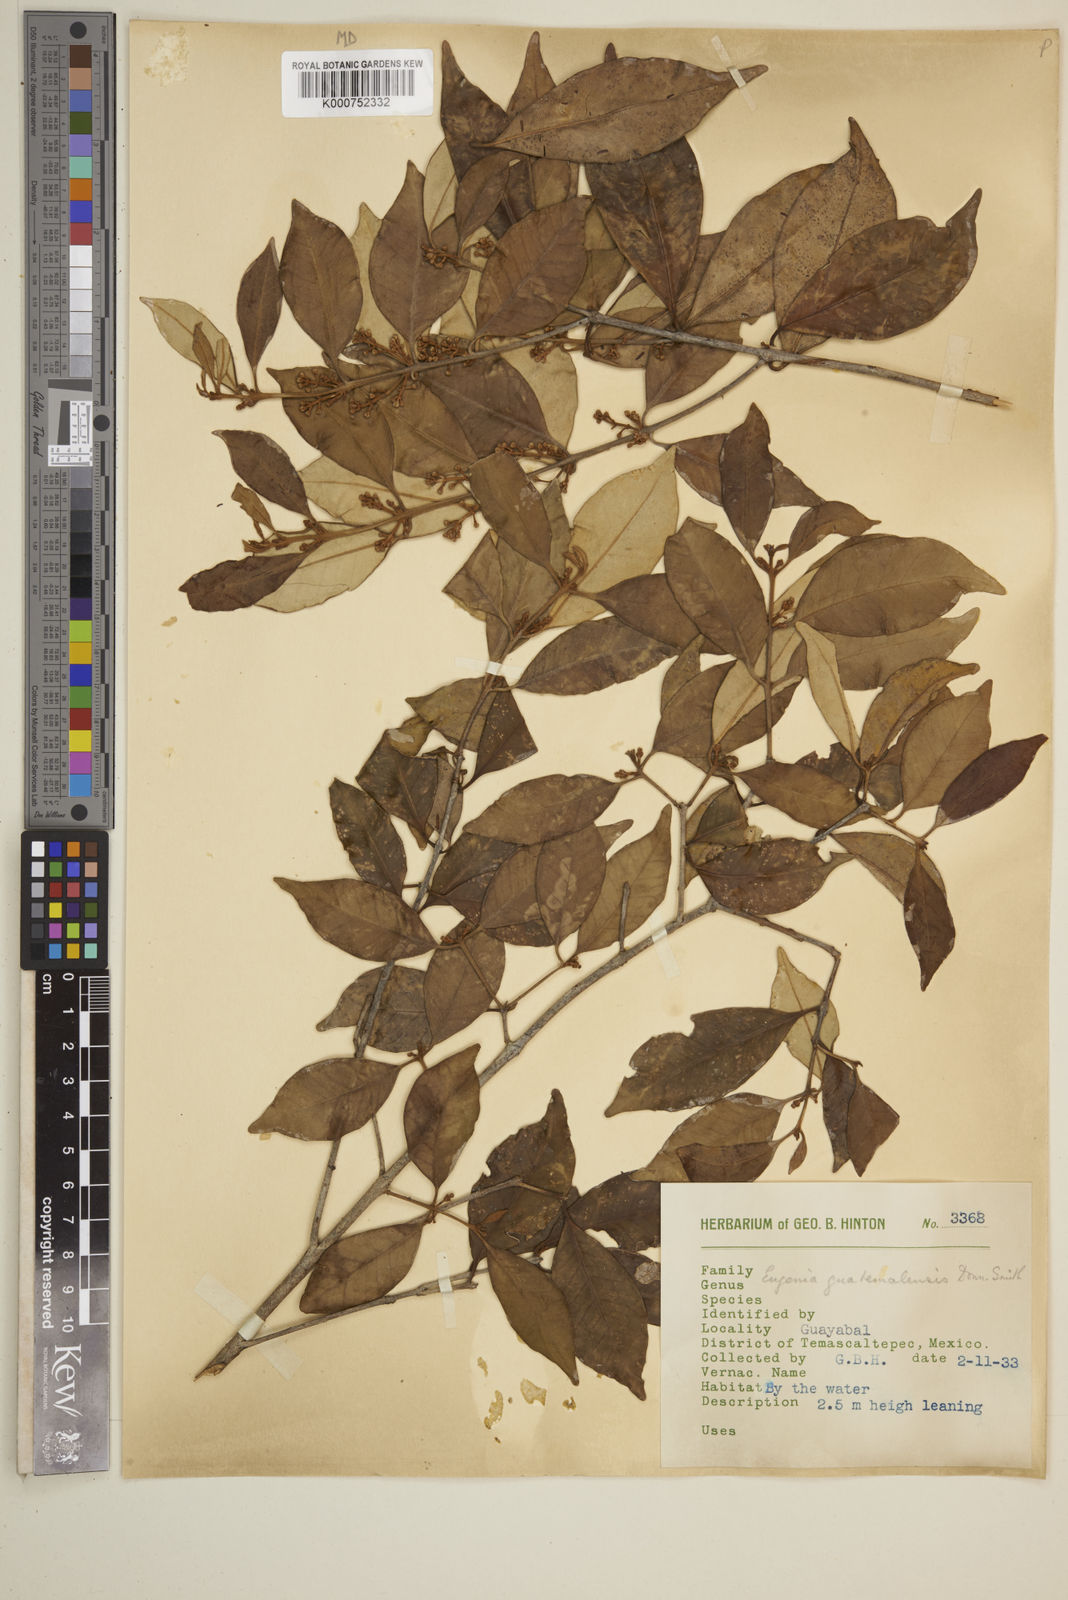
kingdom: Plantae
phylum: Tracheophyta
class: Magnoliopsida
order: Myrtales
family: Myrtaceae
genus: Eugenia
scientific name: Eugenia guatemalensis
